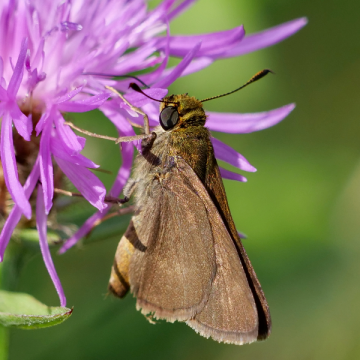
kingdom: Animalia
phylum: Arthropoda
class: Insecta
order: Lepidoptera
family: Hesperiidae
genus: Euphyes
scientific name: Euphyes vestris
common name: Dun Skipper
